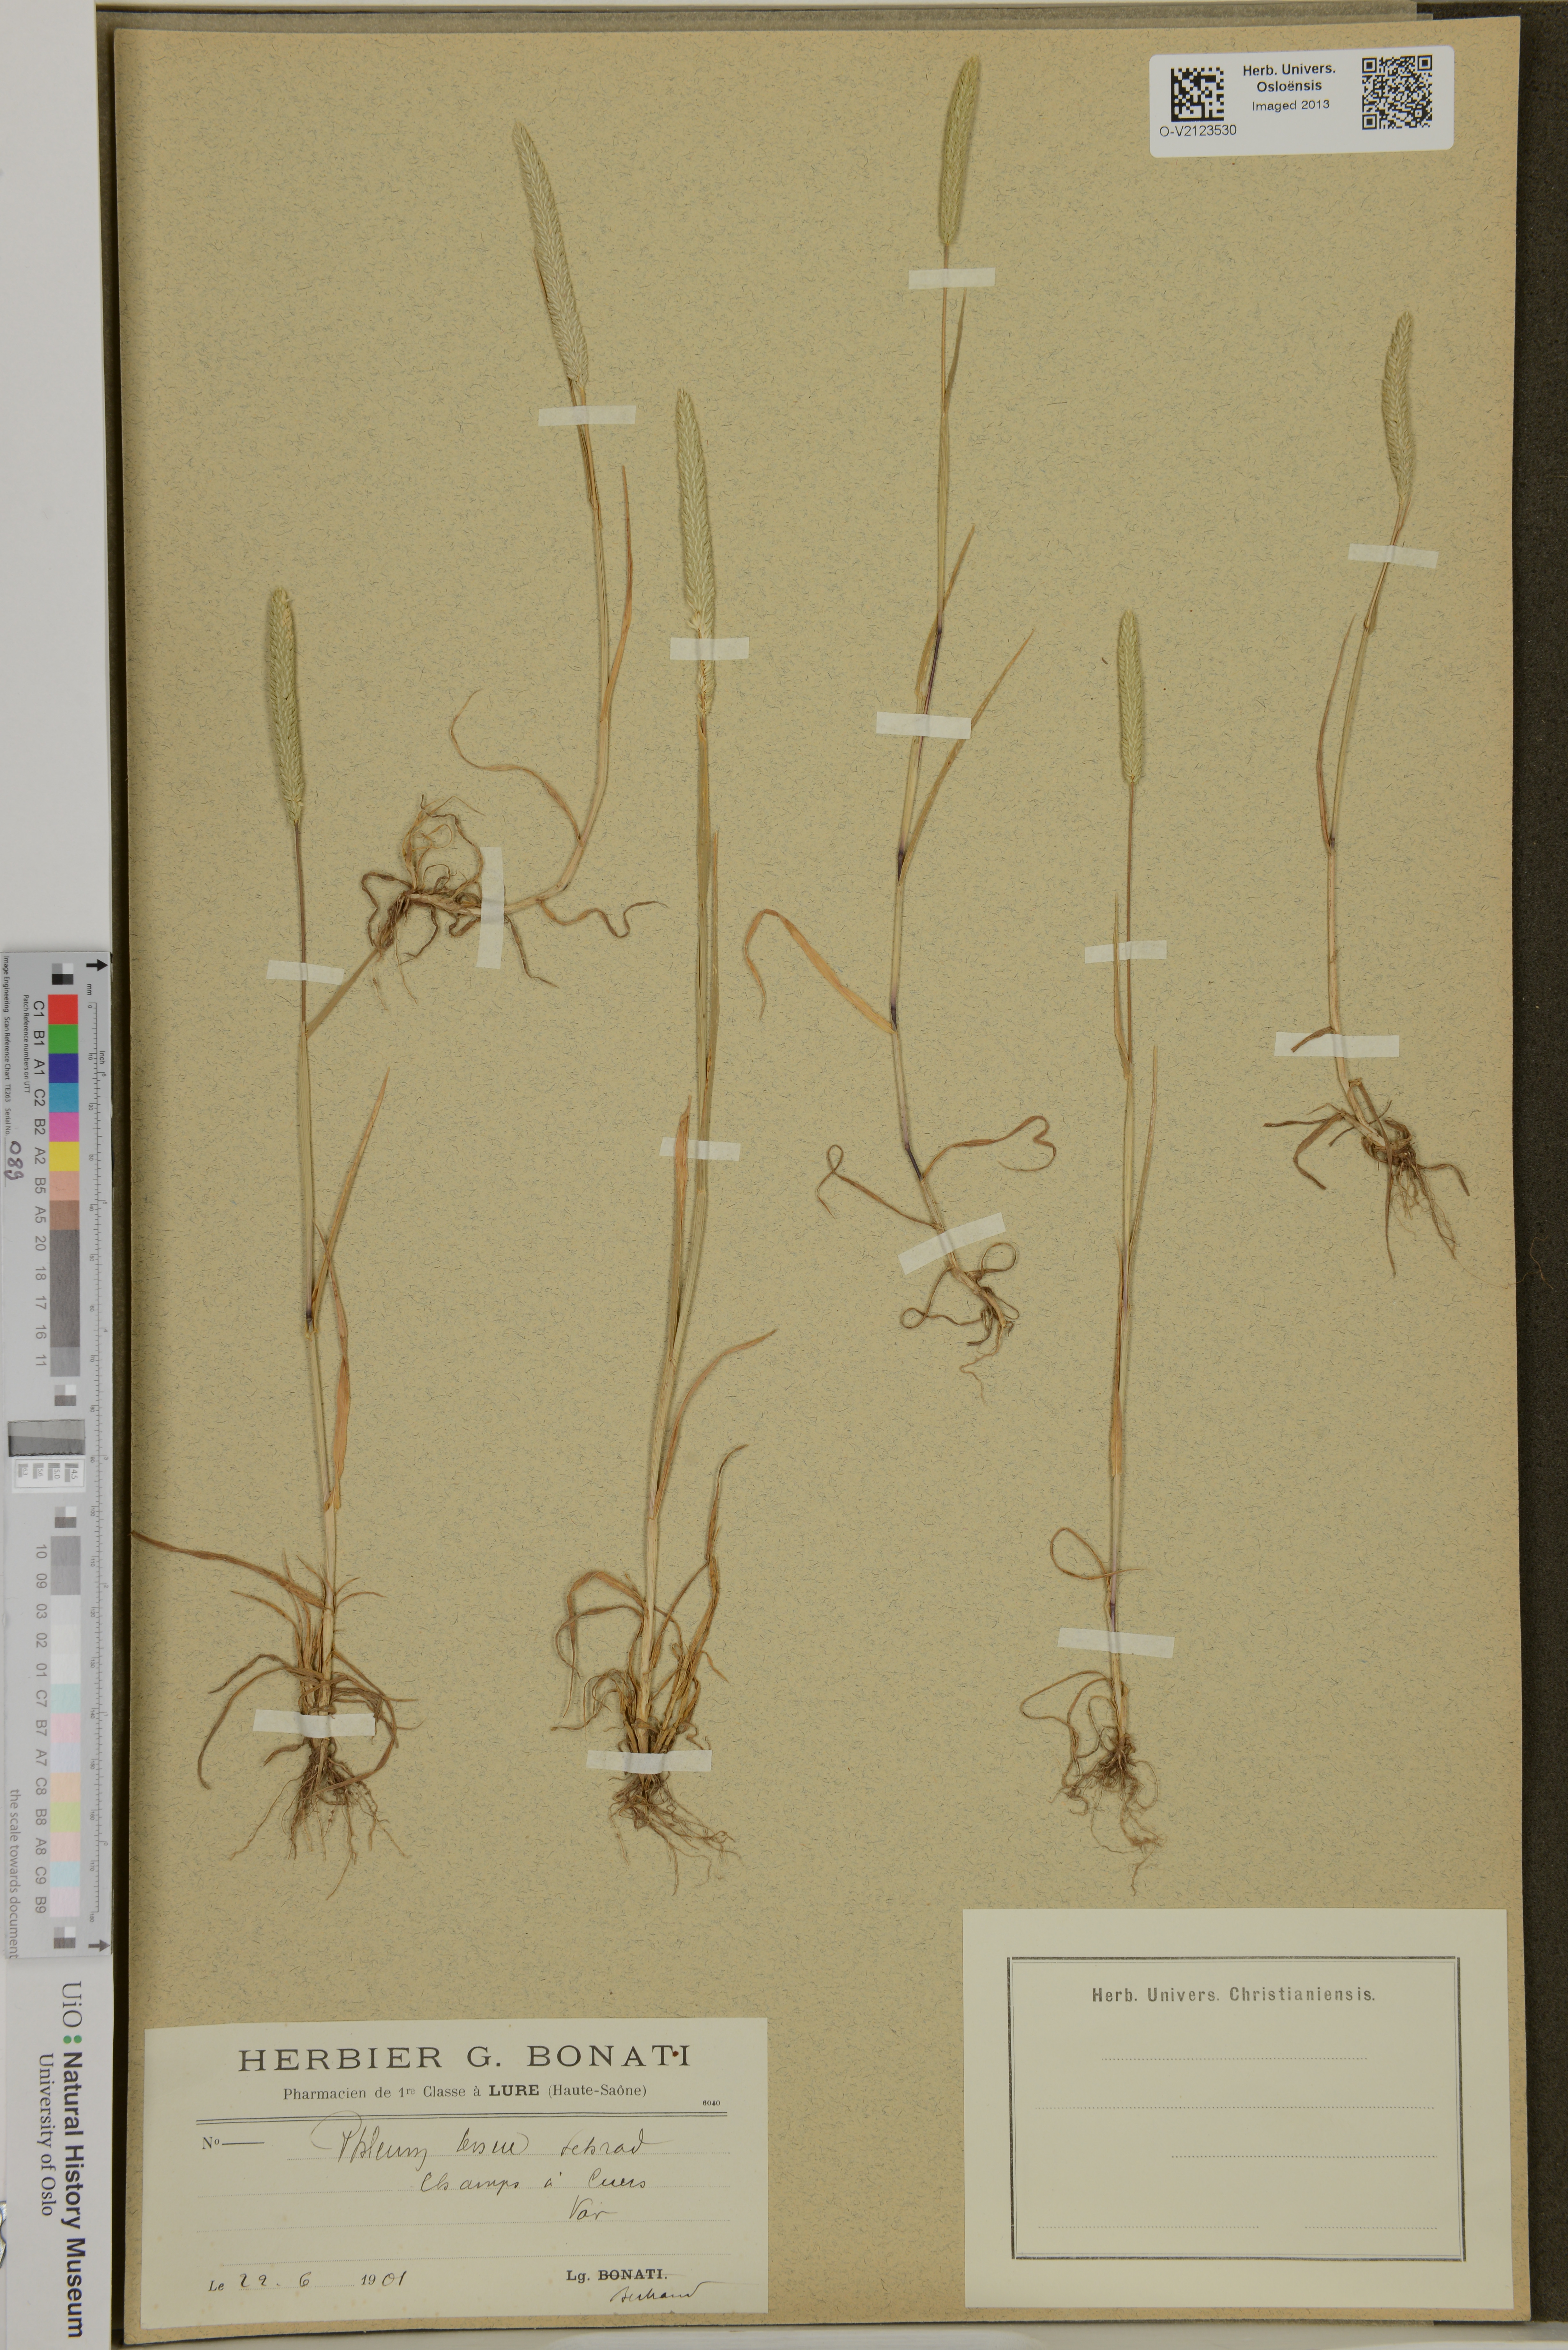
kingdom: Plantae
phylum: Tracheophyta
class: Liliopsida
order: Poales
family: Poaceae
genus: Phleum
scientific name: Phleum subulatum
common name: Italian timothy
